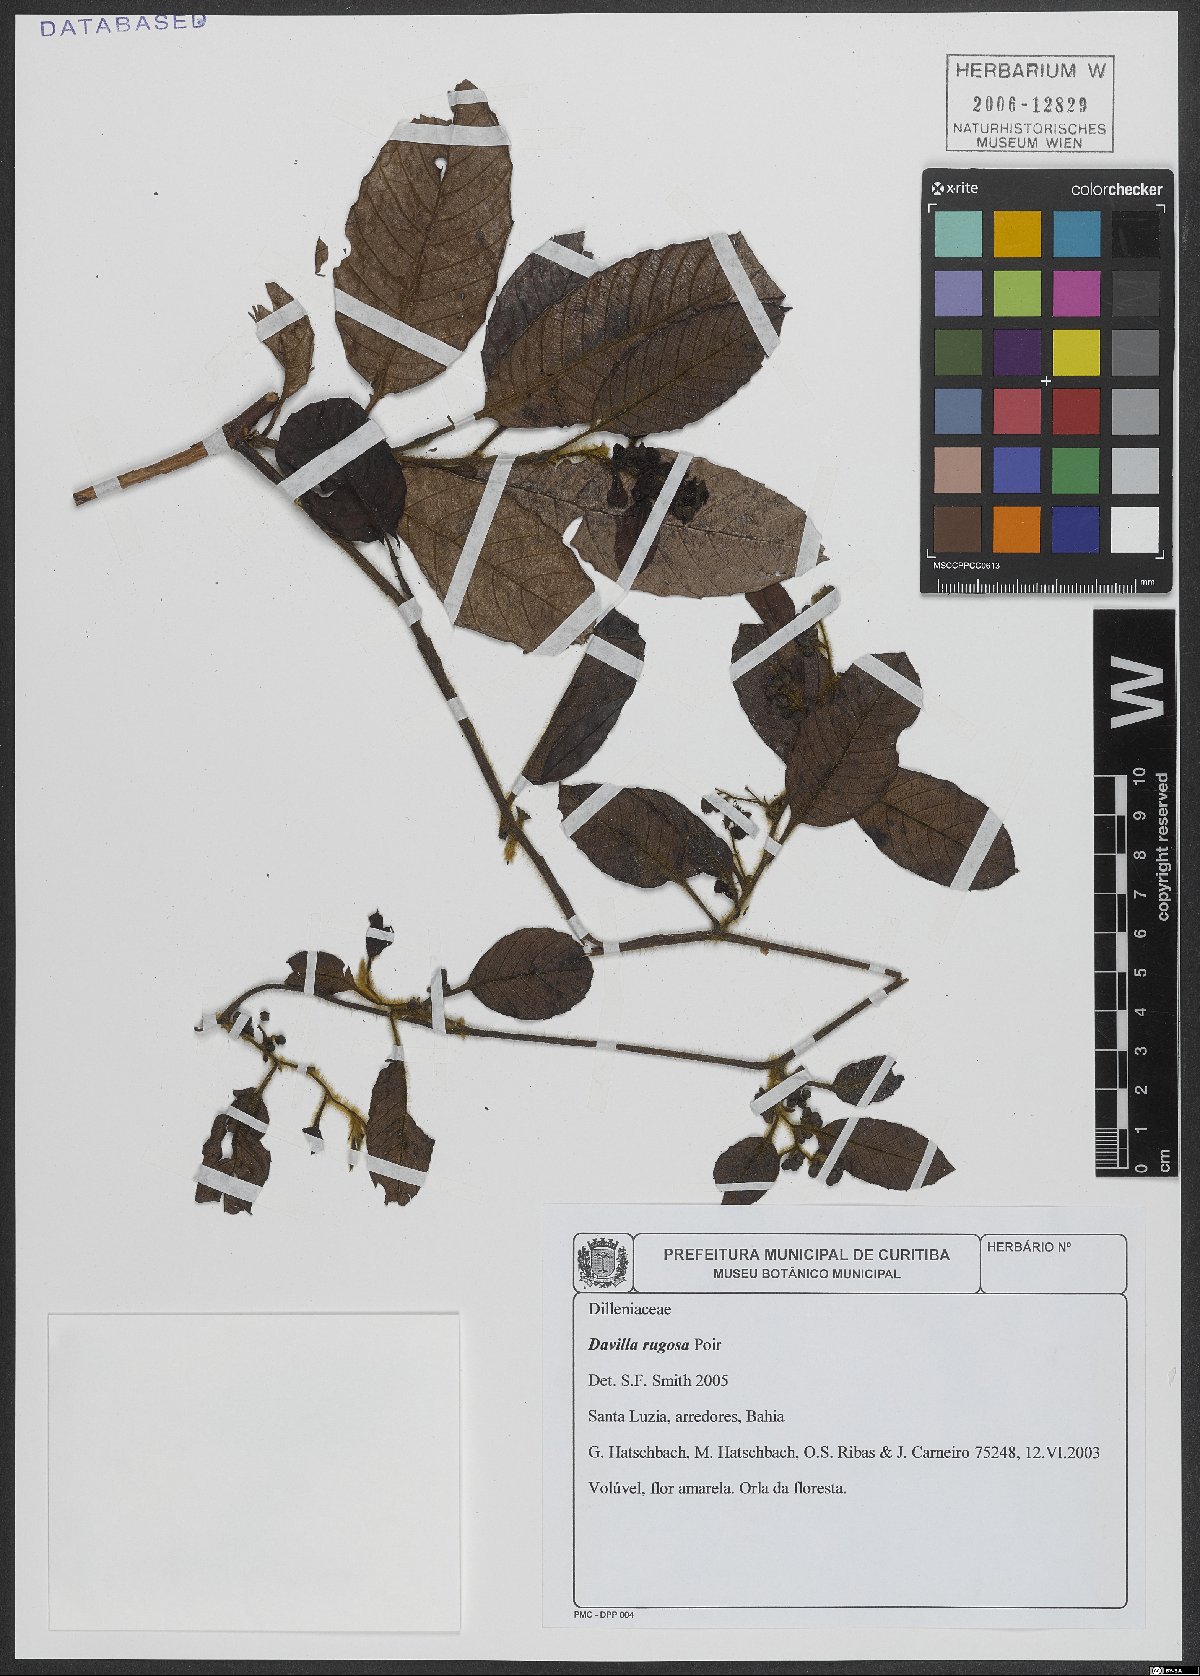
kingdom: Plantae
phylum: Tracheophyta
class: Magnoliopsida
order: Dilleniales
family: Dilleniaceae
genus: Davilla
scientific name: Davilla rugosa
